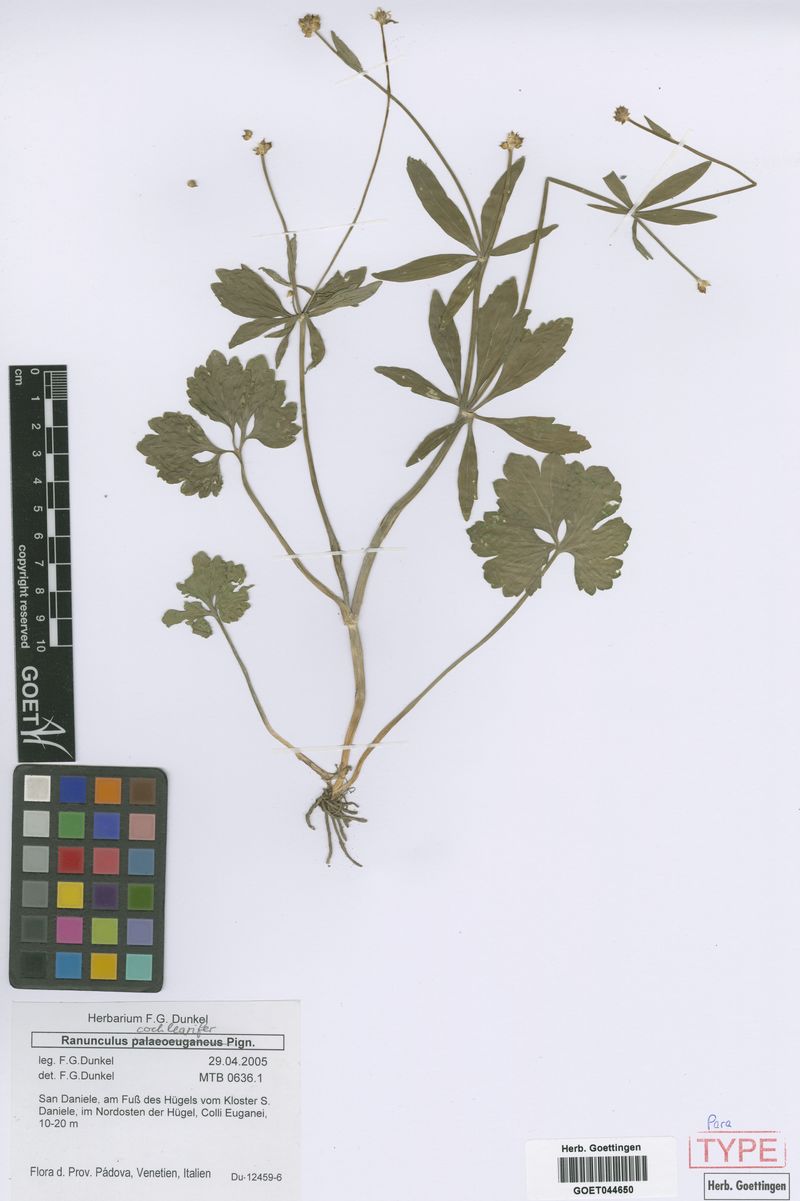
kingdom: Plantae
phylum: Tracheophyta
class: Magnoliopsida
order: Ranunculales
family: Ranunculaceae
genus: Ranunculus
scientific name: Ranunculus cochlearifer
